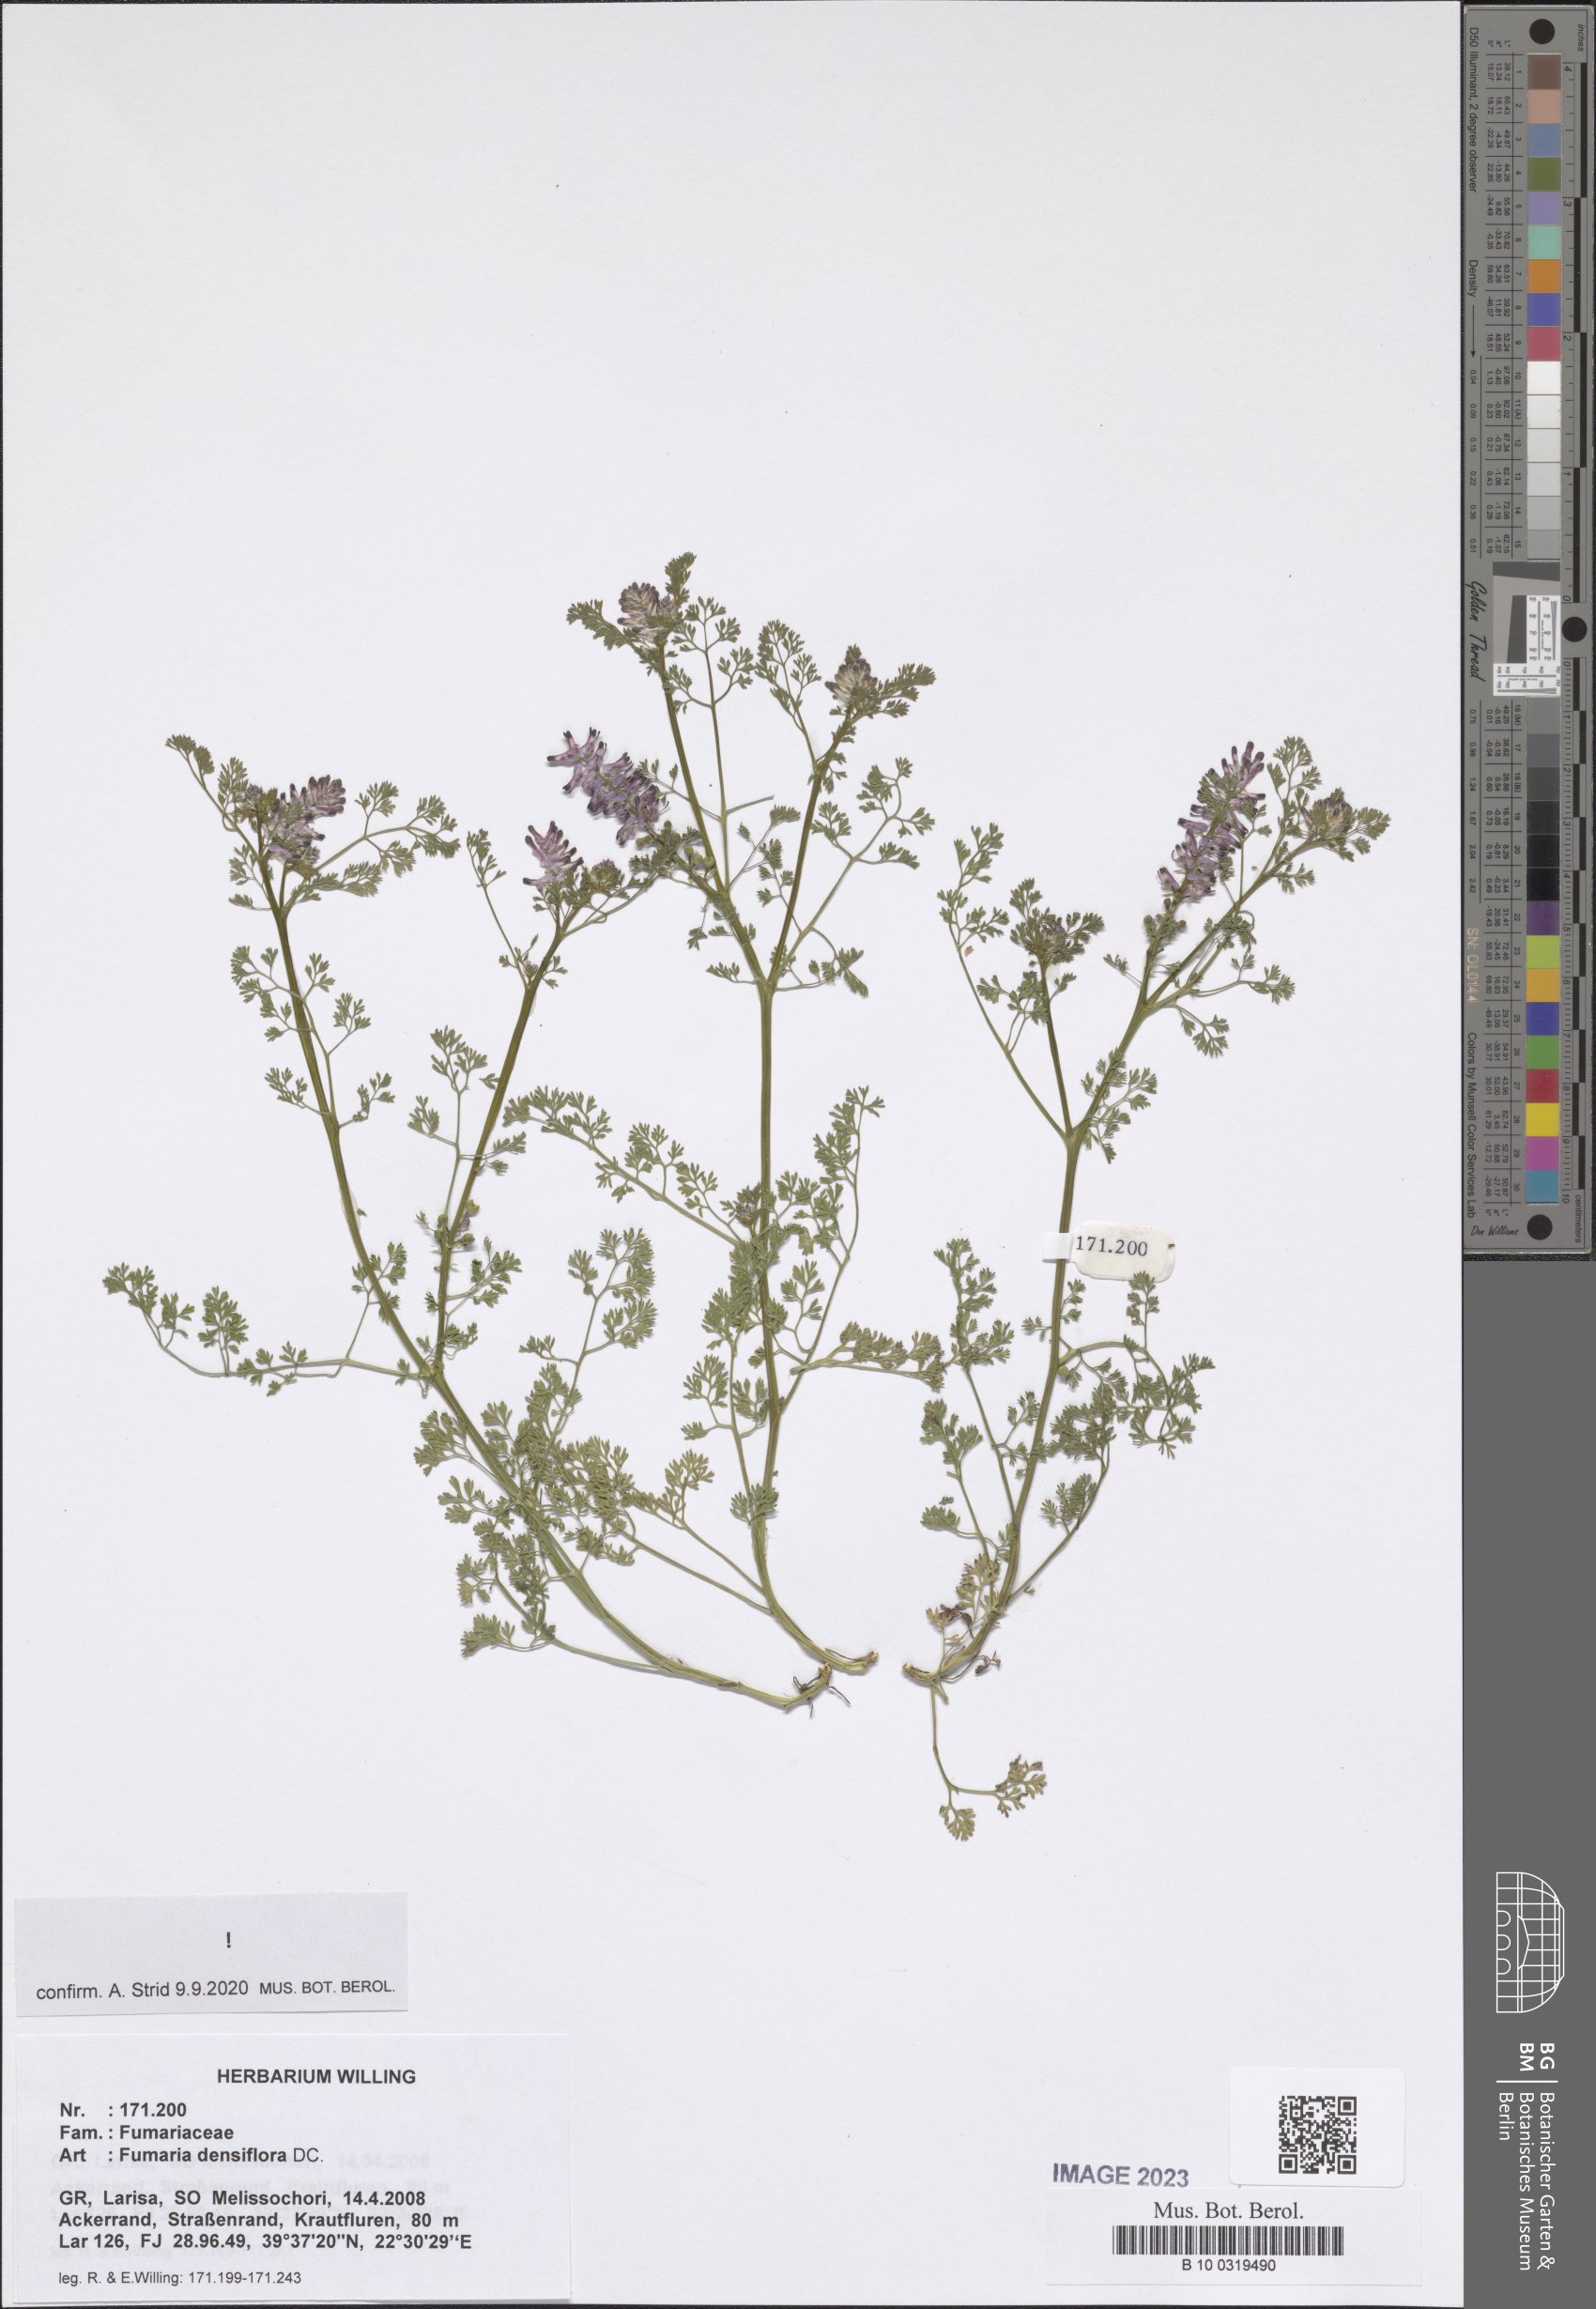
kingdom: Plantae
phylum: Tracheophyta
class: Magnoliopsida
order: Ranunculales
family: Papaveraceae
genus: Fumaria
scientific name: Fumaria densiflora
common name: Dense-flowered fumitory
